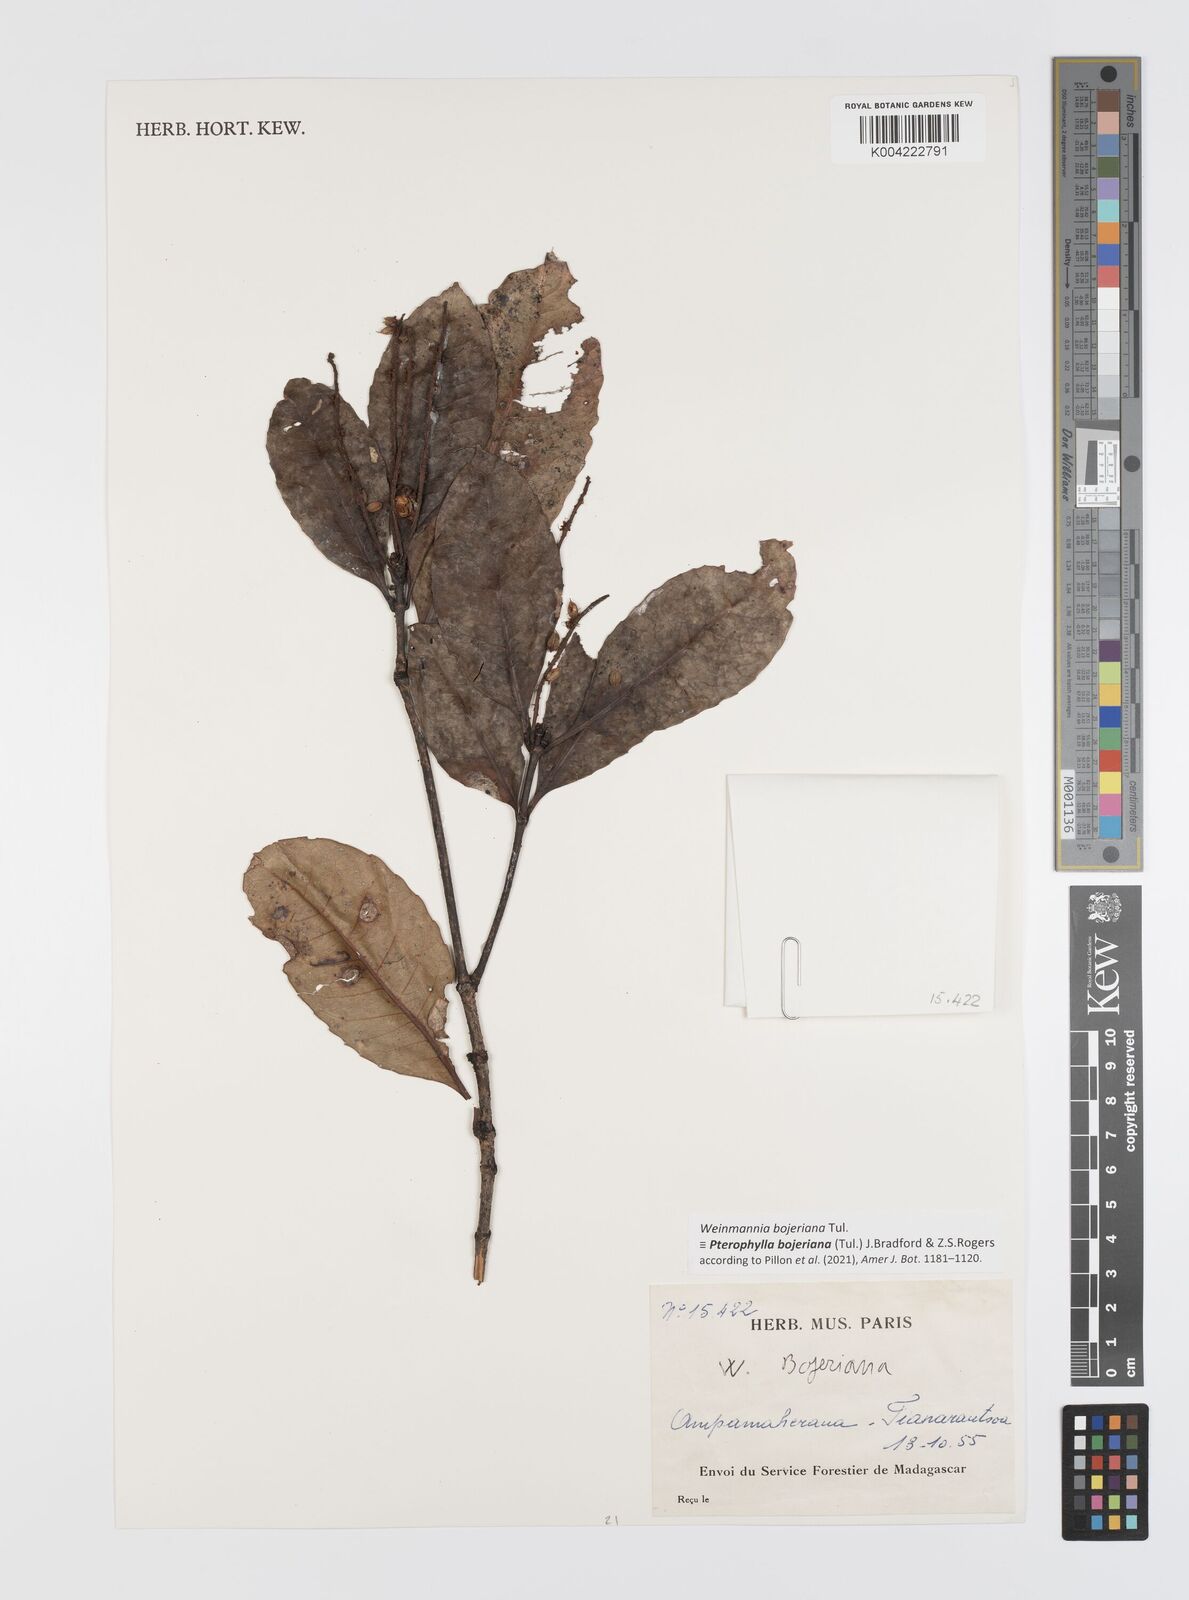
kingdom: Plantae
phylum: Tracheophyta
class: Magnoliopsida
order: Oxalidales
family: Cunoniaceae
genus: Pterophylla
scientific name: Pterophylla
